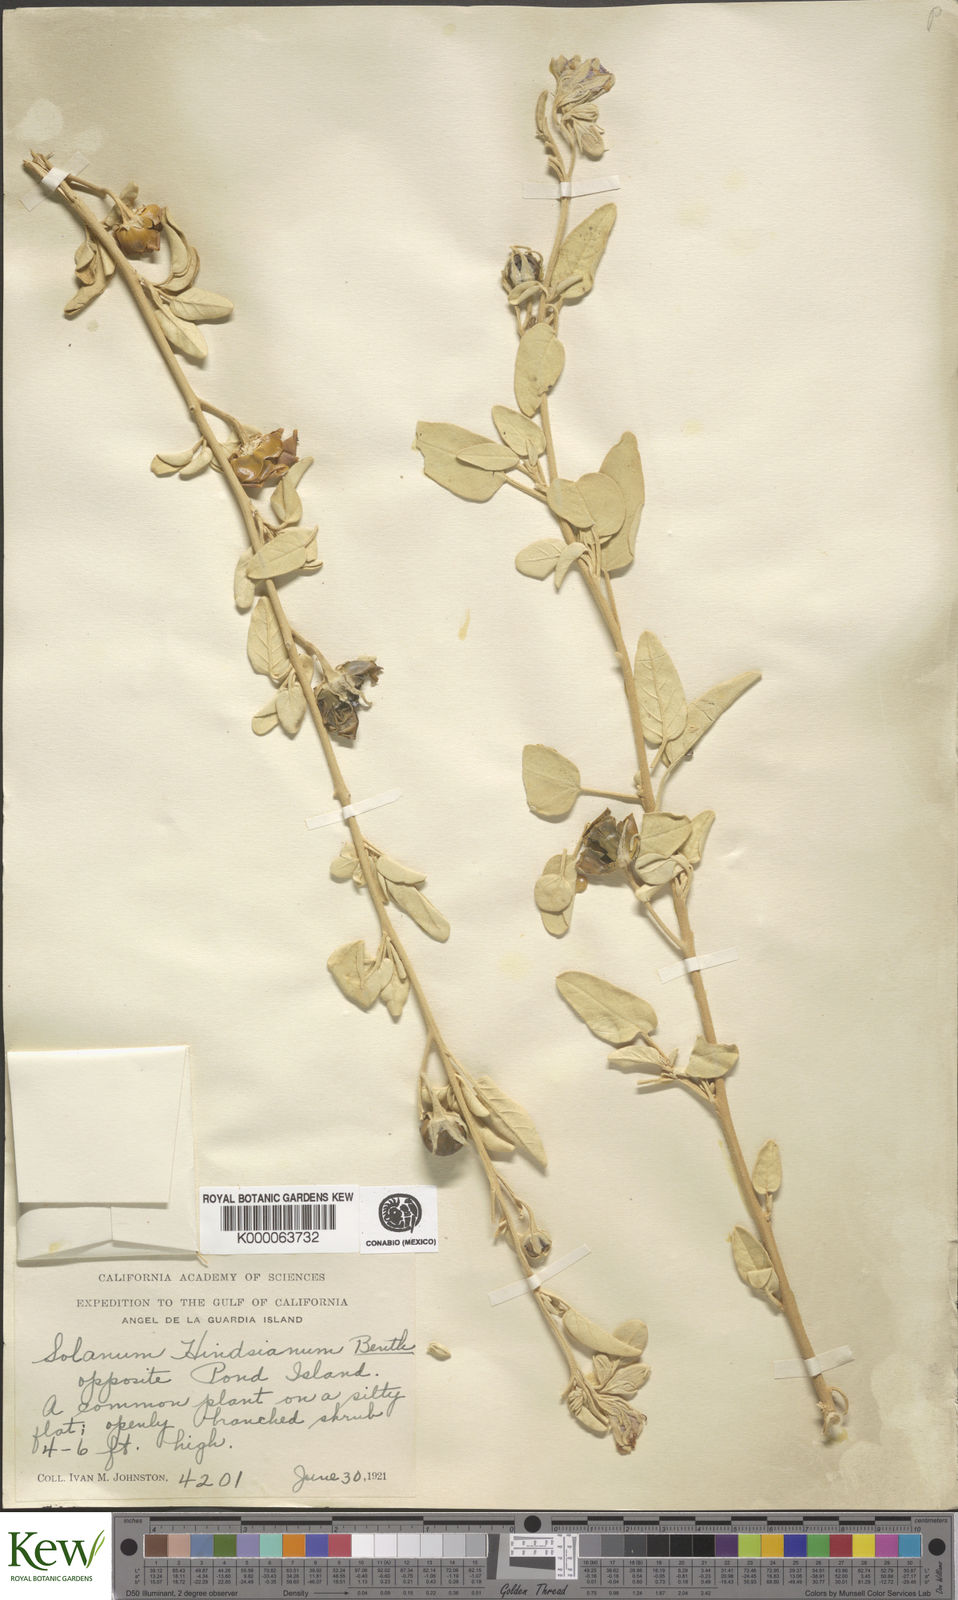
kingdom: Plantae
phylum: Tracheophyta
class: Magnoliopsida
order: Solanales
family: Solanaceae
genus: Solanum
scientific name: Solanum hindsianum
